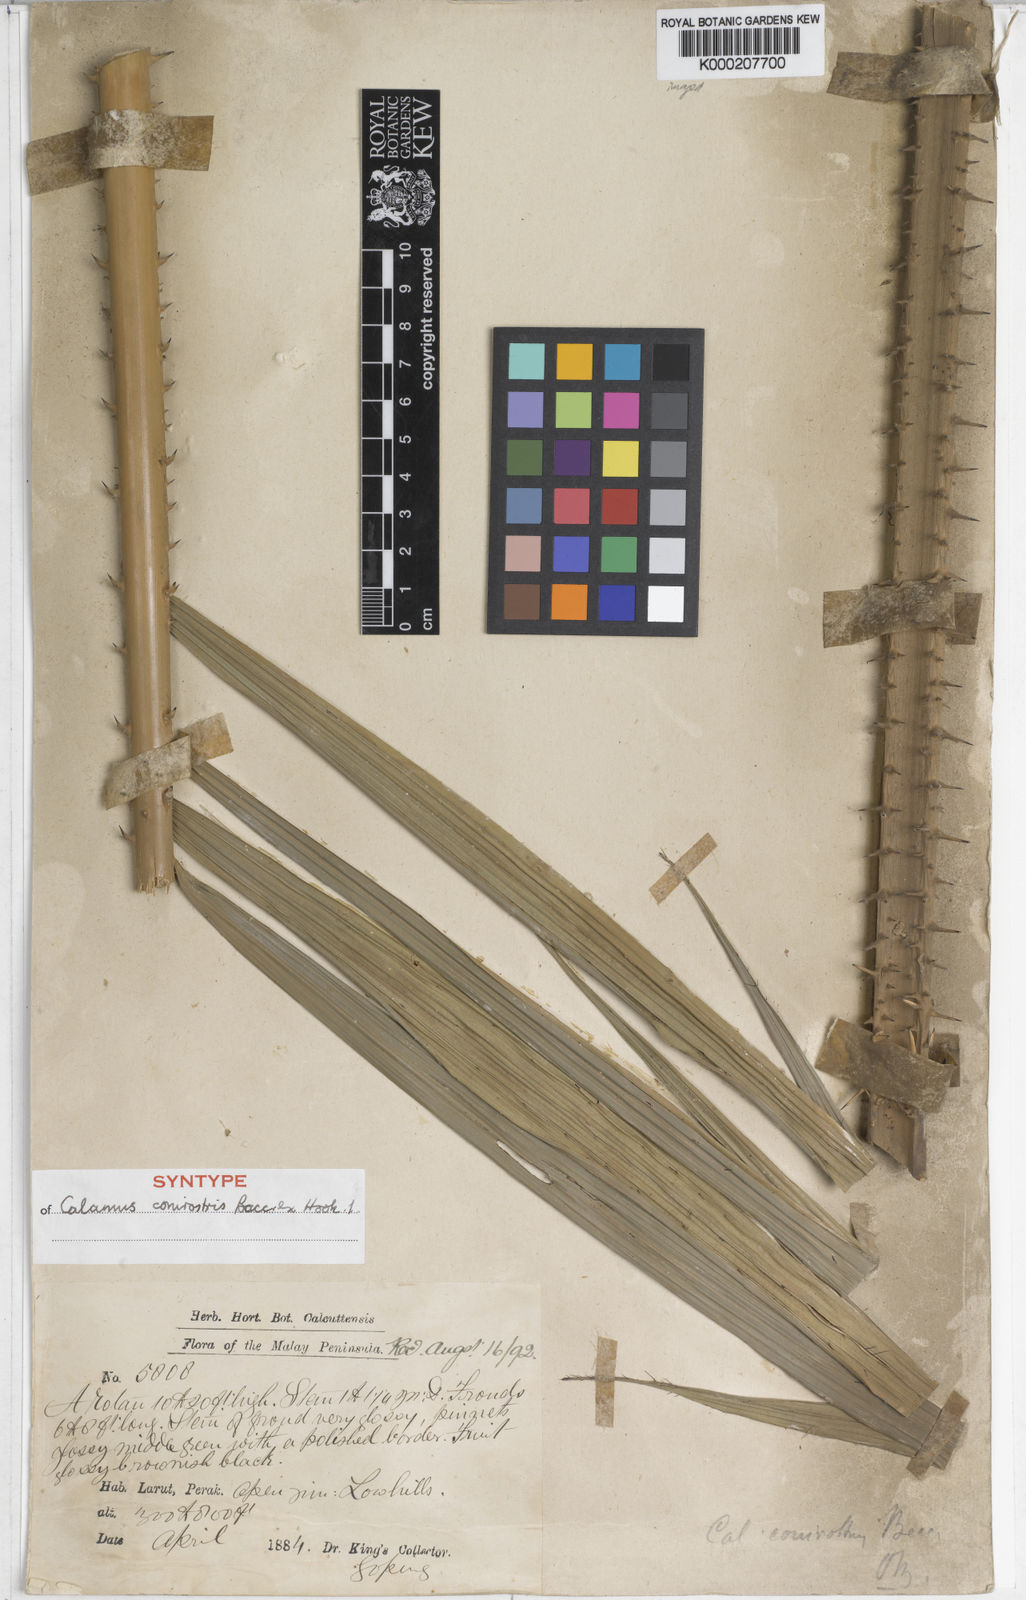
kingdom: Plantae
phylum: Tracheophyta
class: Liliopsida
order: Arecales
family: Arecaceae
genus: Calamus
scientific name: Calamus conirostris
